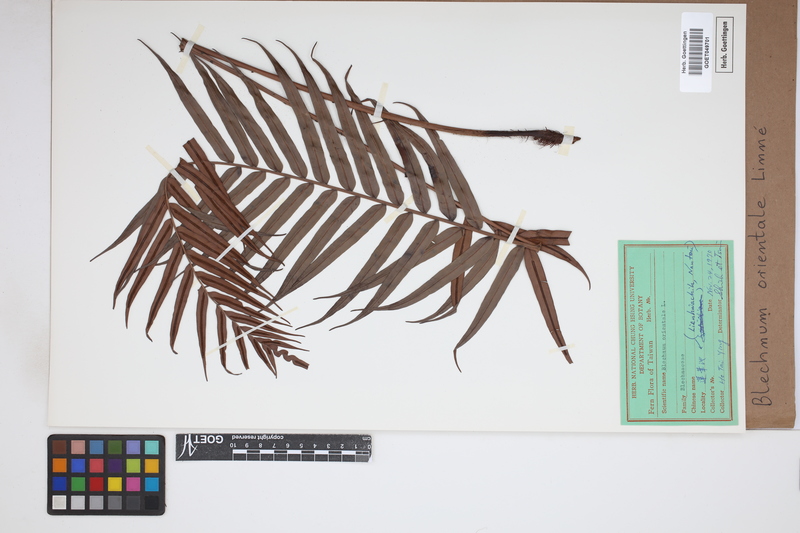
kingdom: Plantae
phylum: Tracheophyta
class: Polypodiopsida
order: Polypodiales
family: Blechnaceae
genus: Blechnopsis
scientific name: Blechnopsis orientalis
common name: Oriental blechnum
